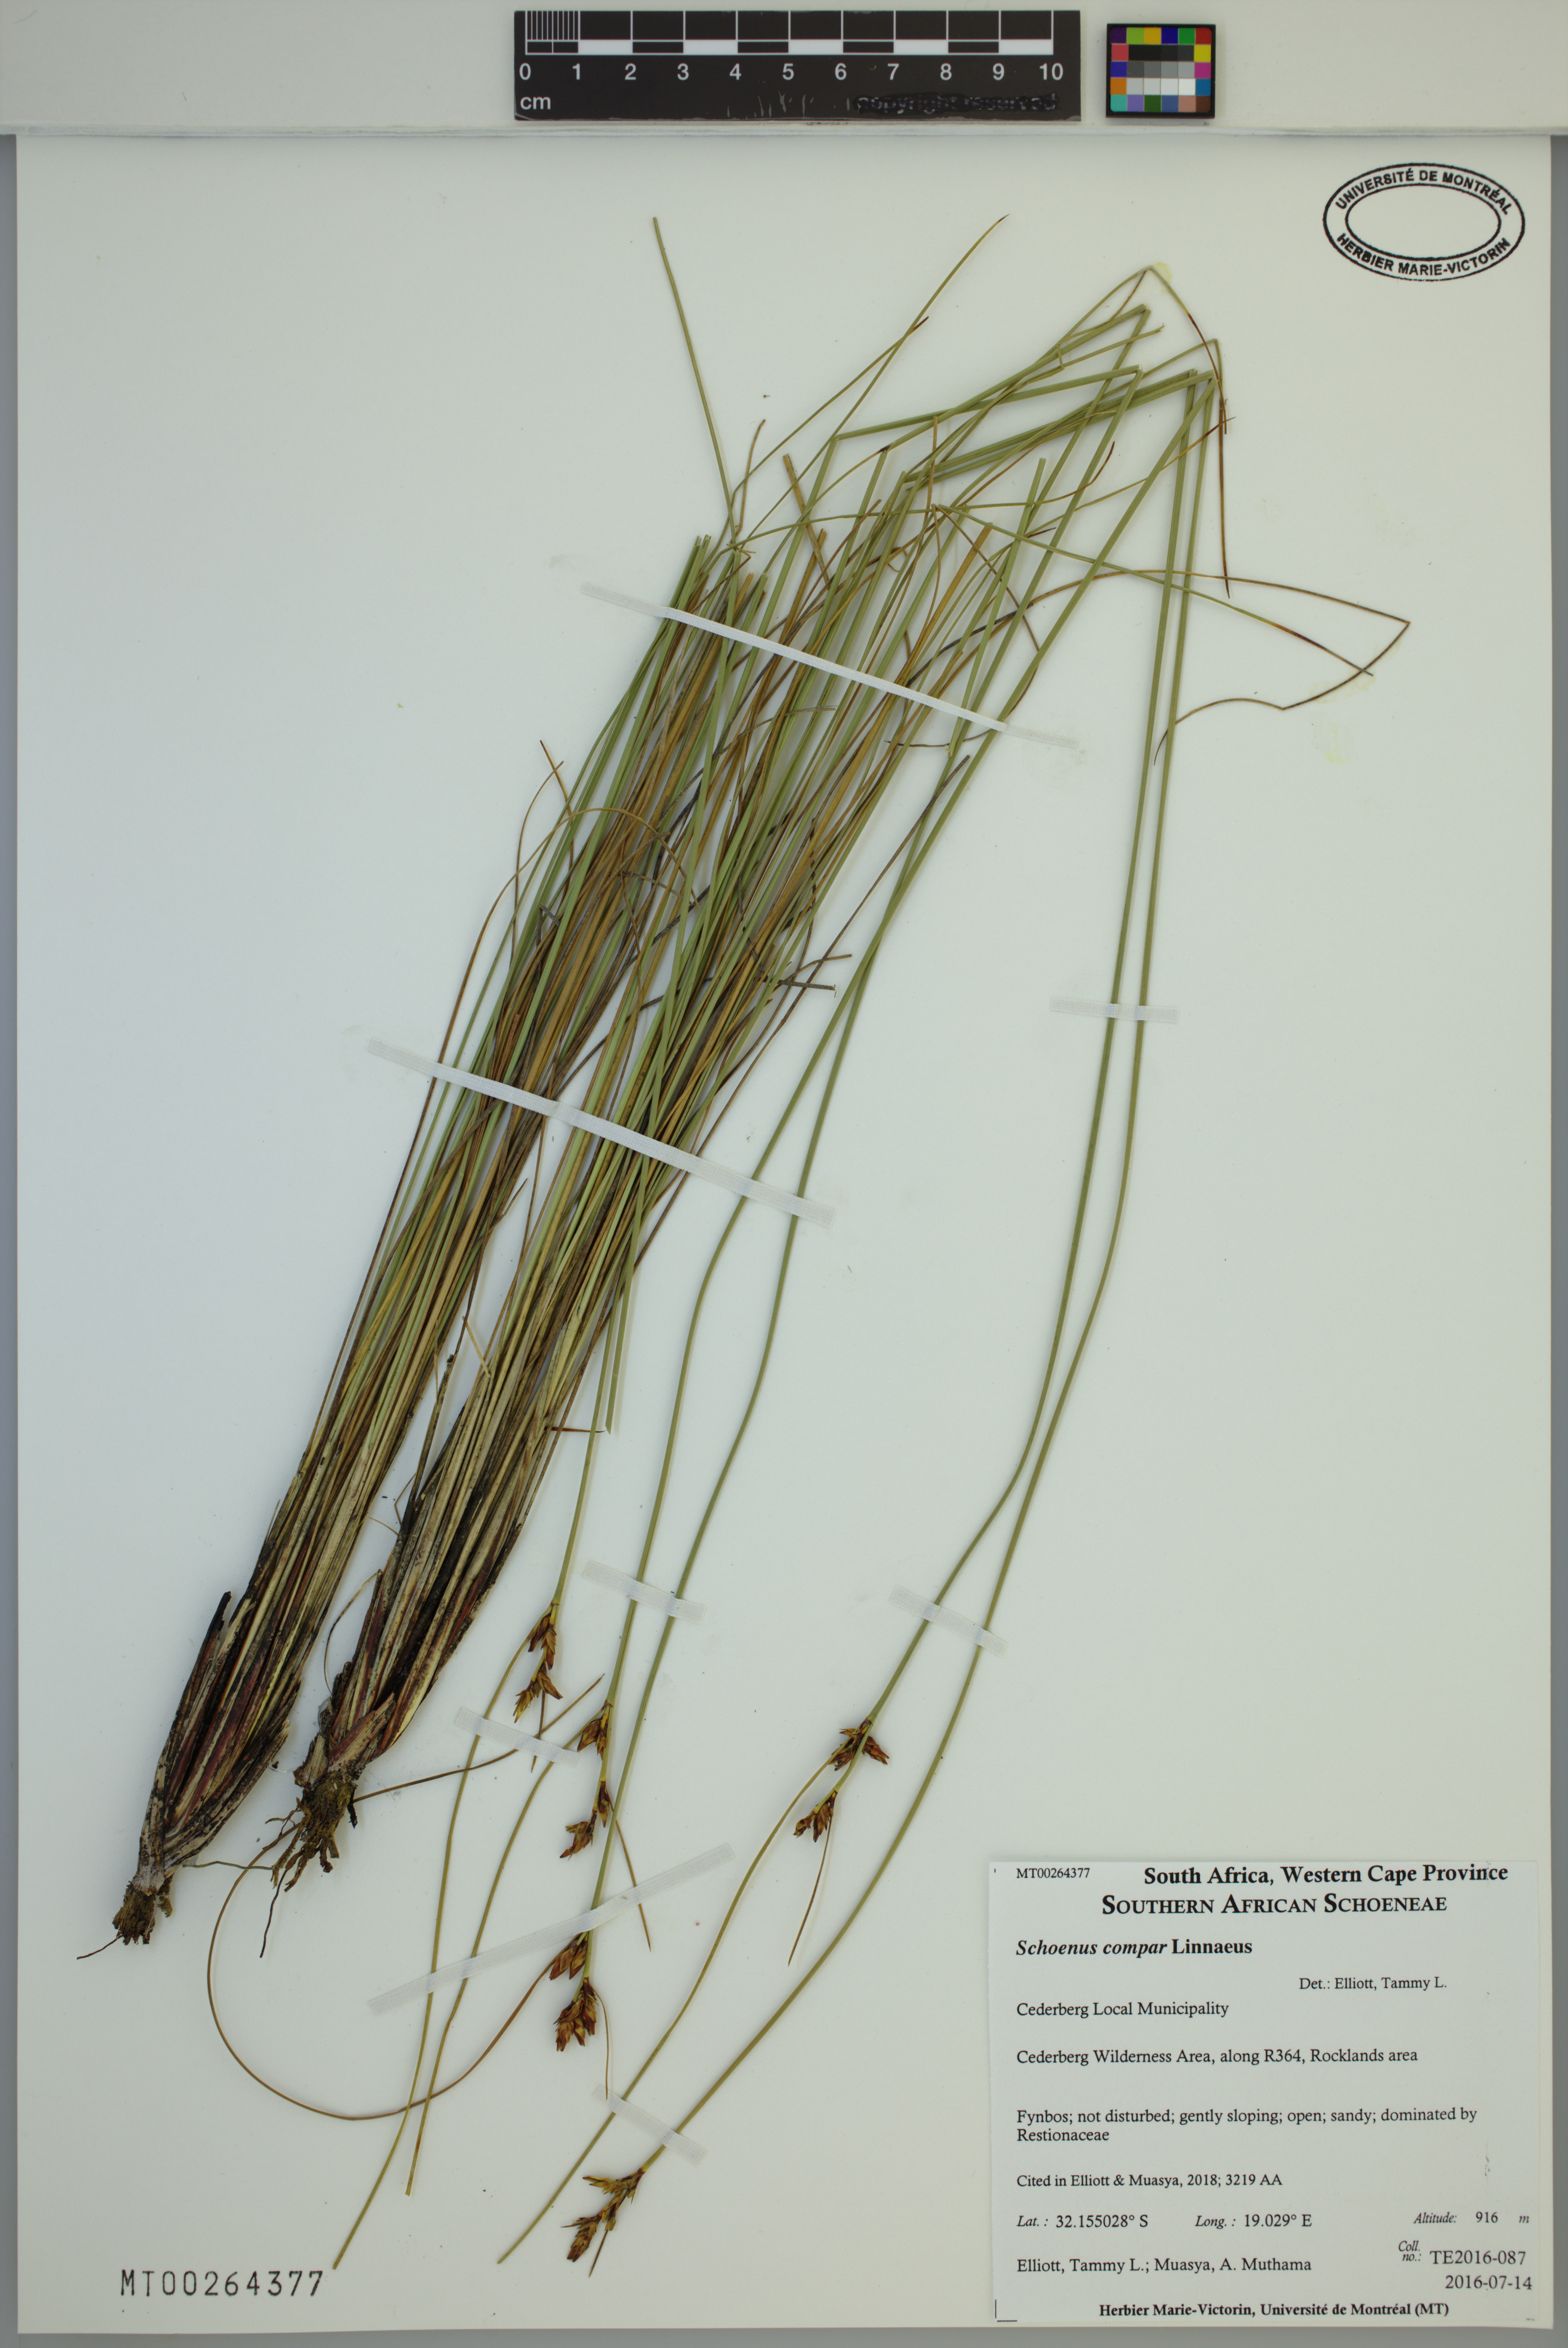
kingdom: Plantae
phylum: Tracheophyta
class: Liliopsida
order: Poales
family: Cyperaceae
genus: Schoenus
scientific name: Schoenus compar
